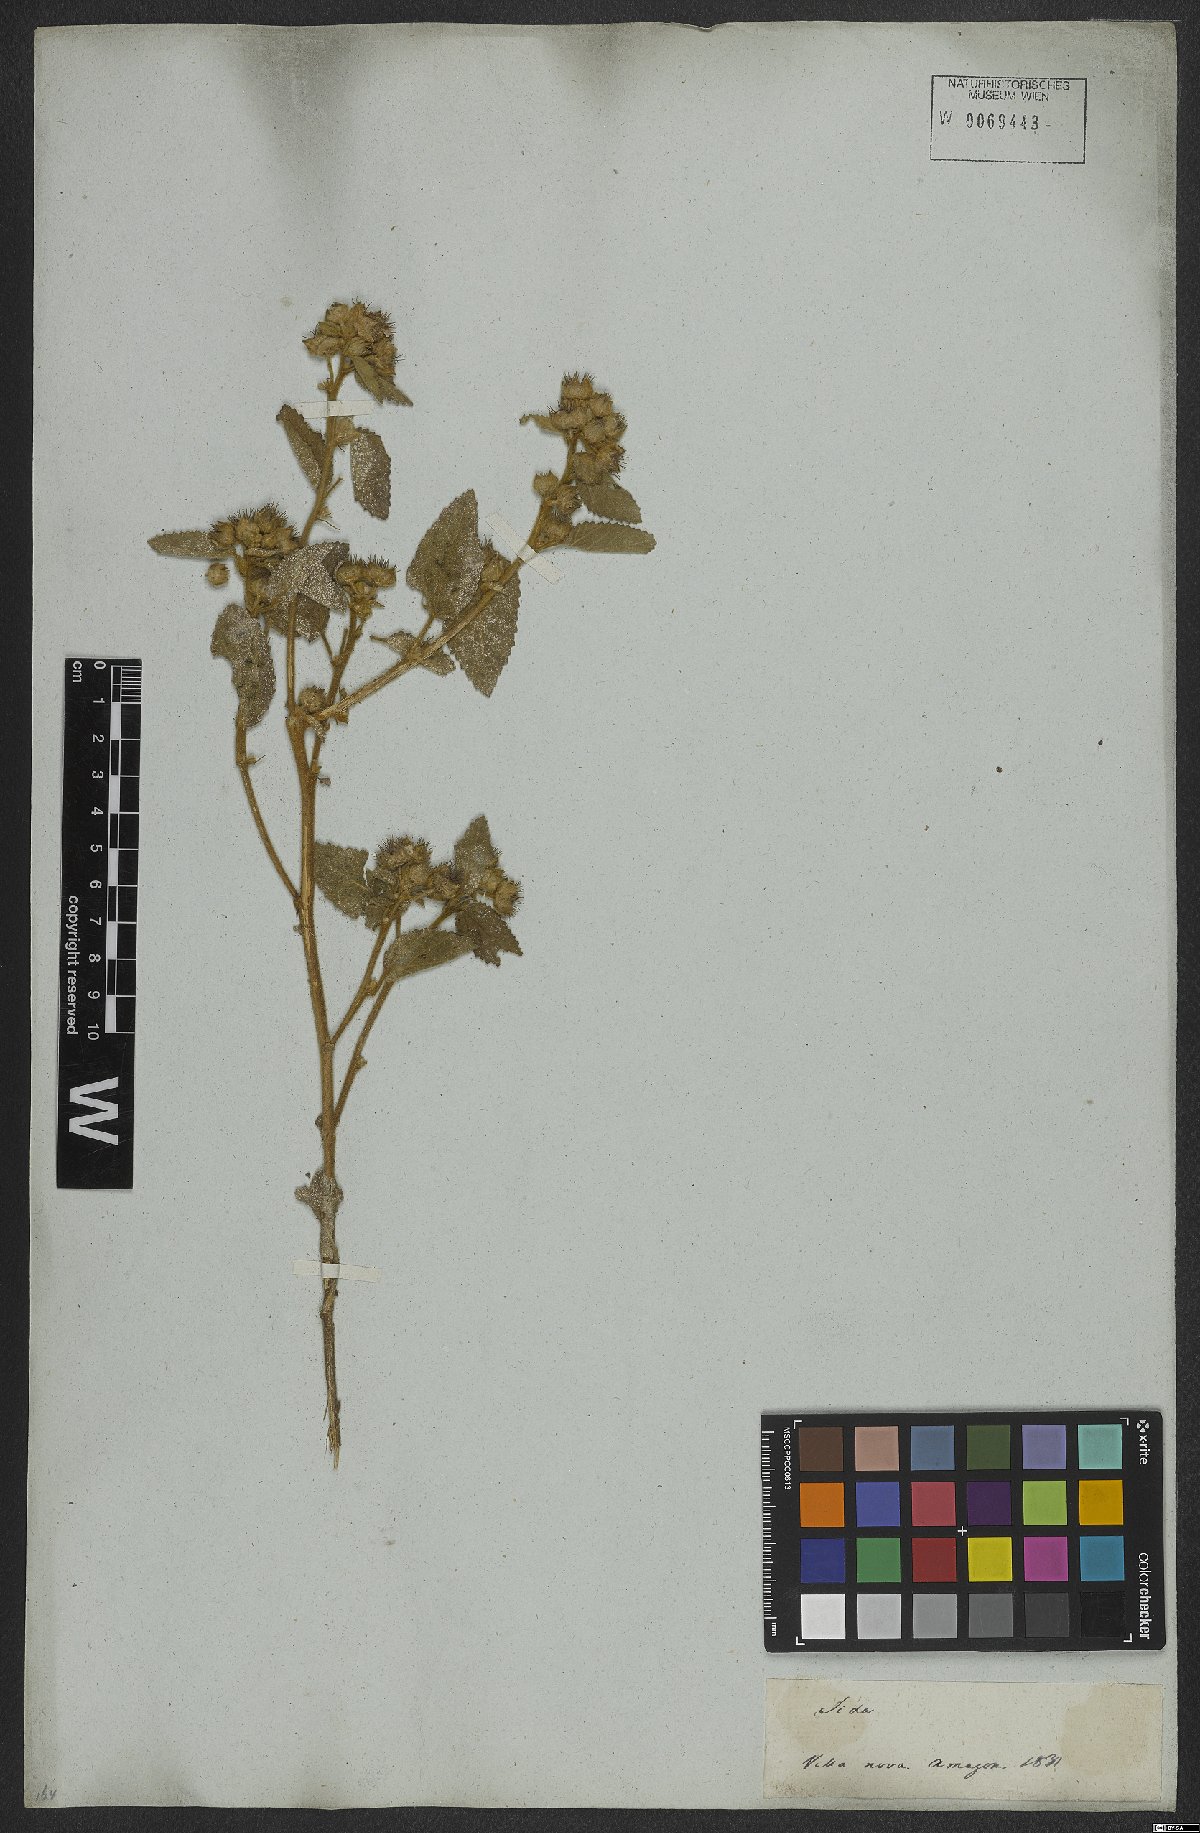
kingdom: Plantae
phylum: Tracheophyta
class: Magnoliopsida
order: Malvales
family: Malvaceae
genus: Sida
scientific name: Sida cordifolia
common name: Ilima
